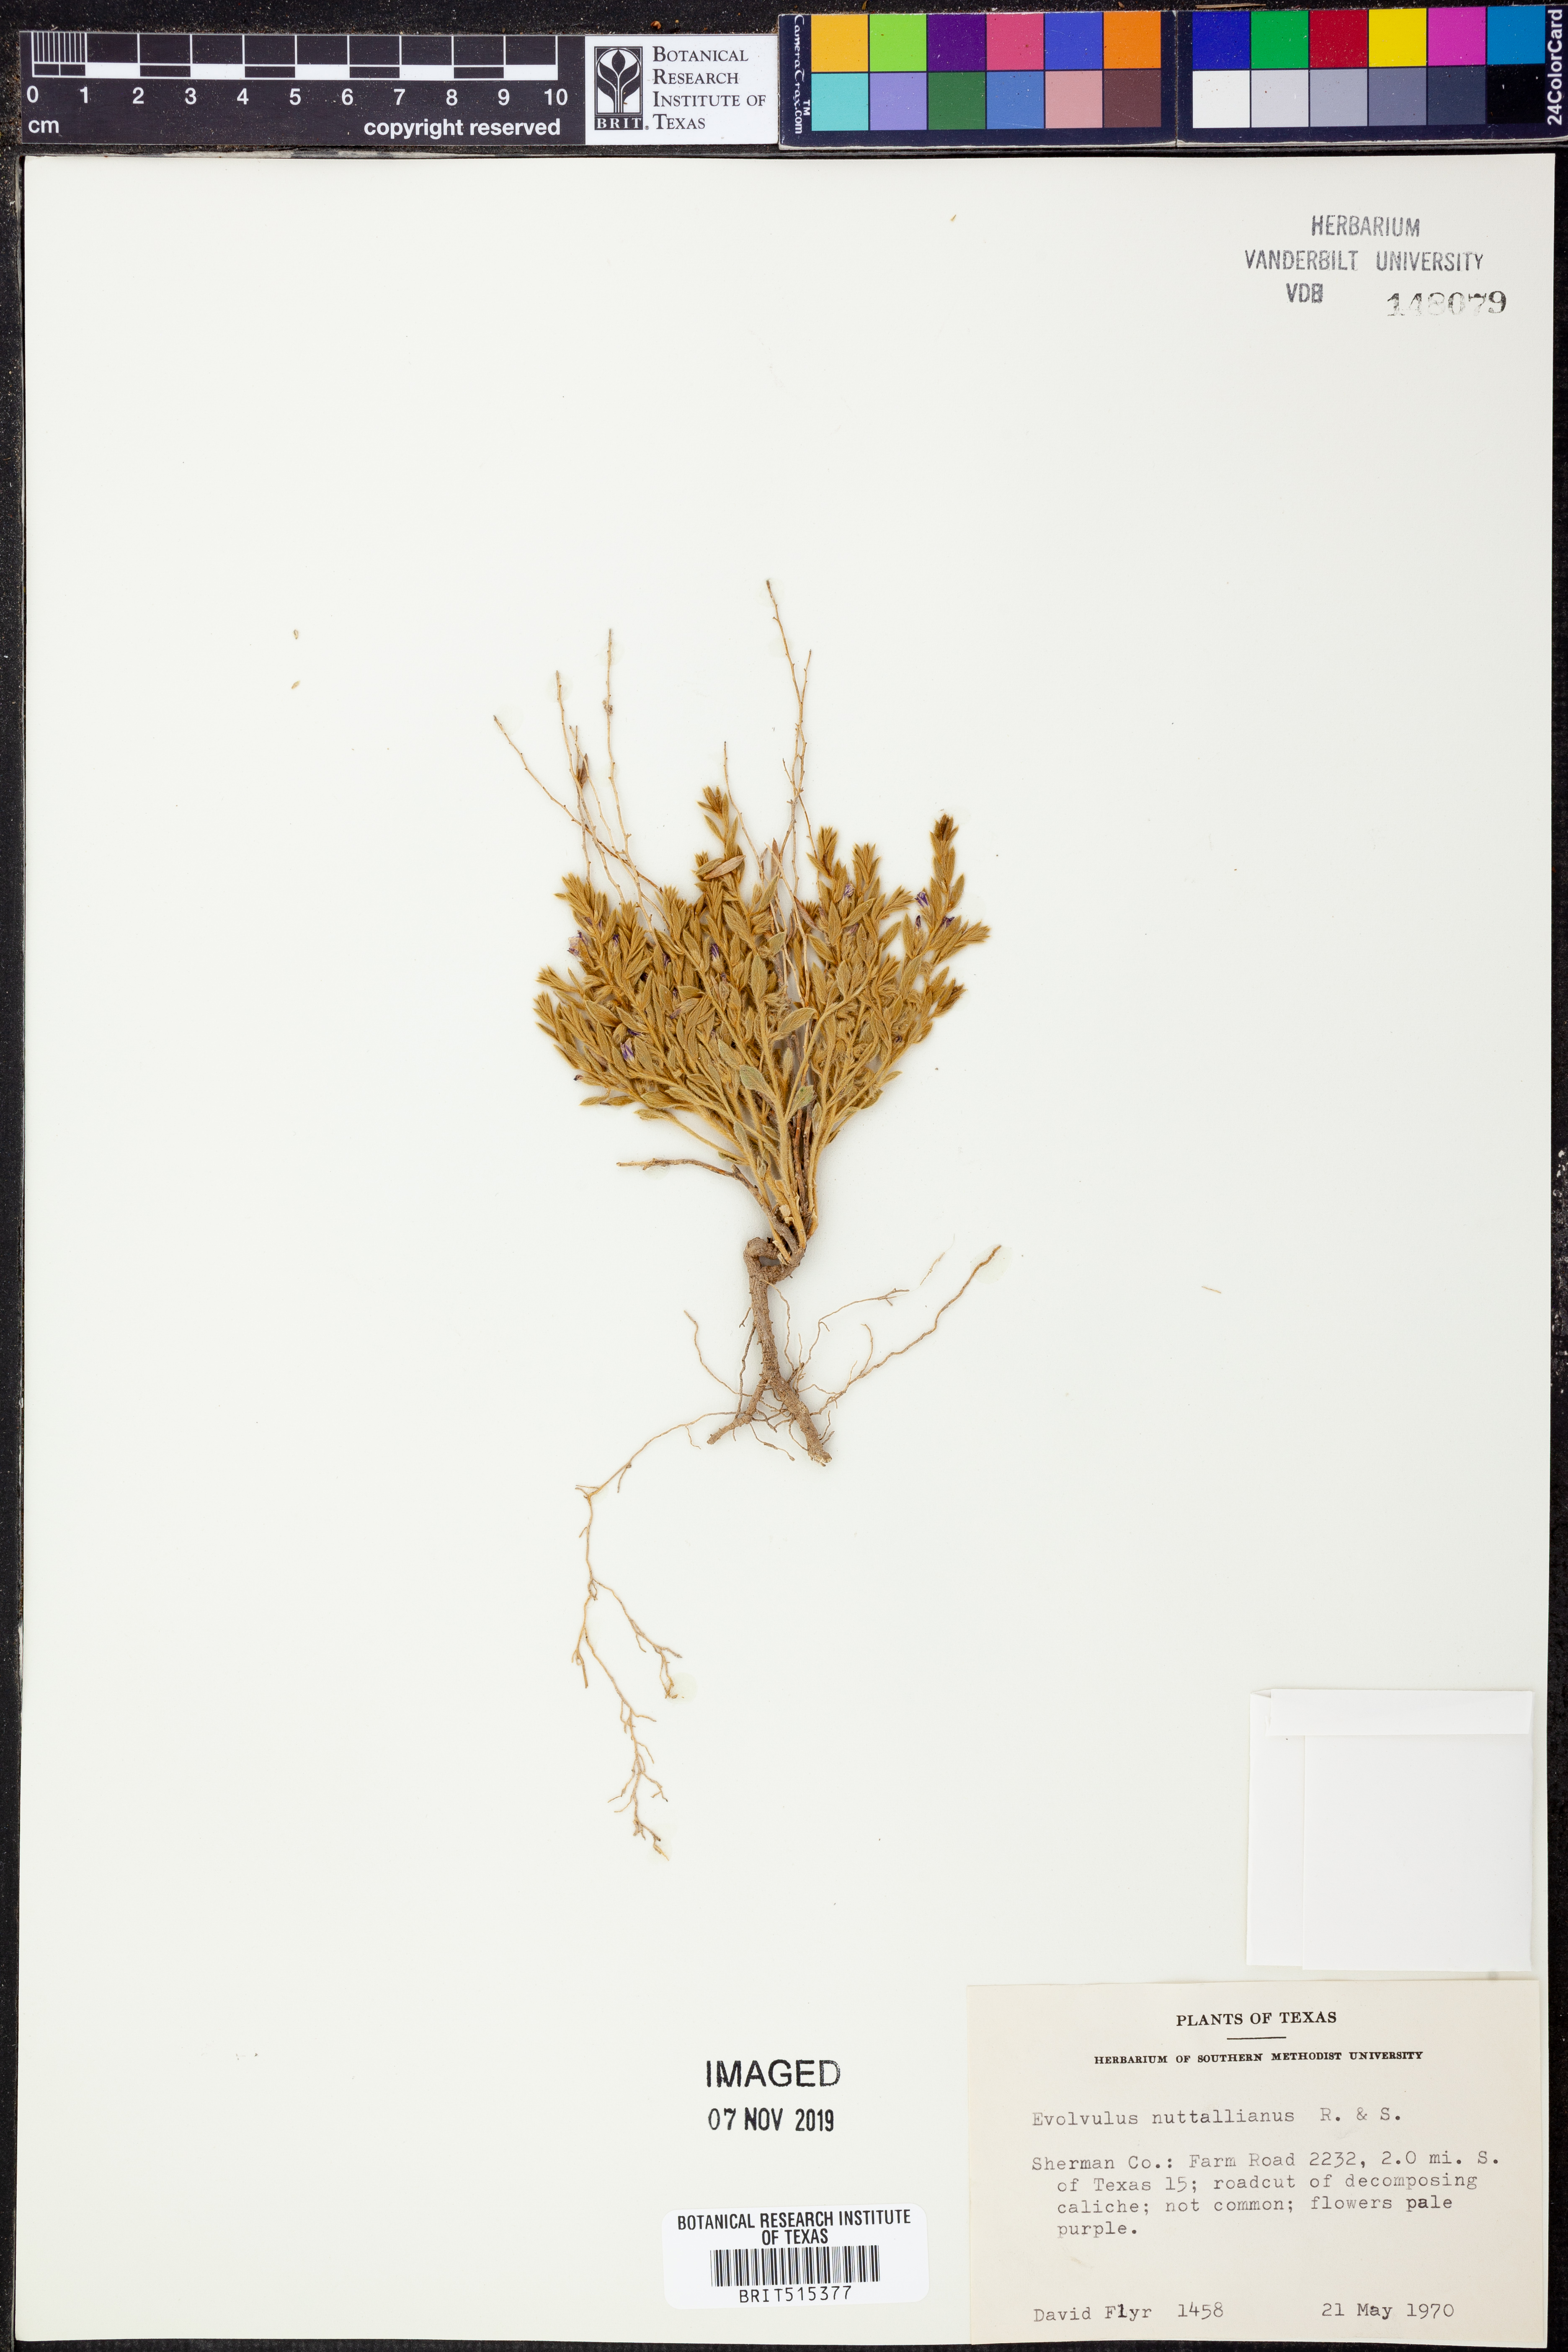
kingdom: Plantae
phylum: Tracheophyta
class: Magnoliopsida
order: Solanales
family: Convolvulaceae
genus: Evolvulus
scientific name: Evolvulus nuttallianus
